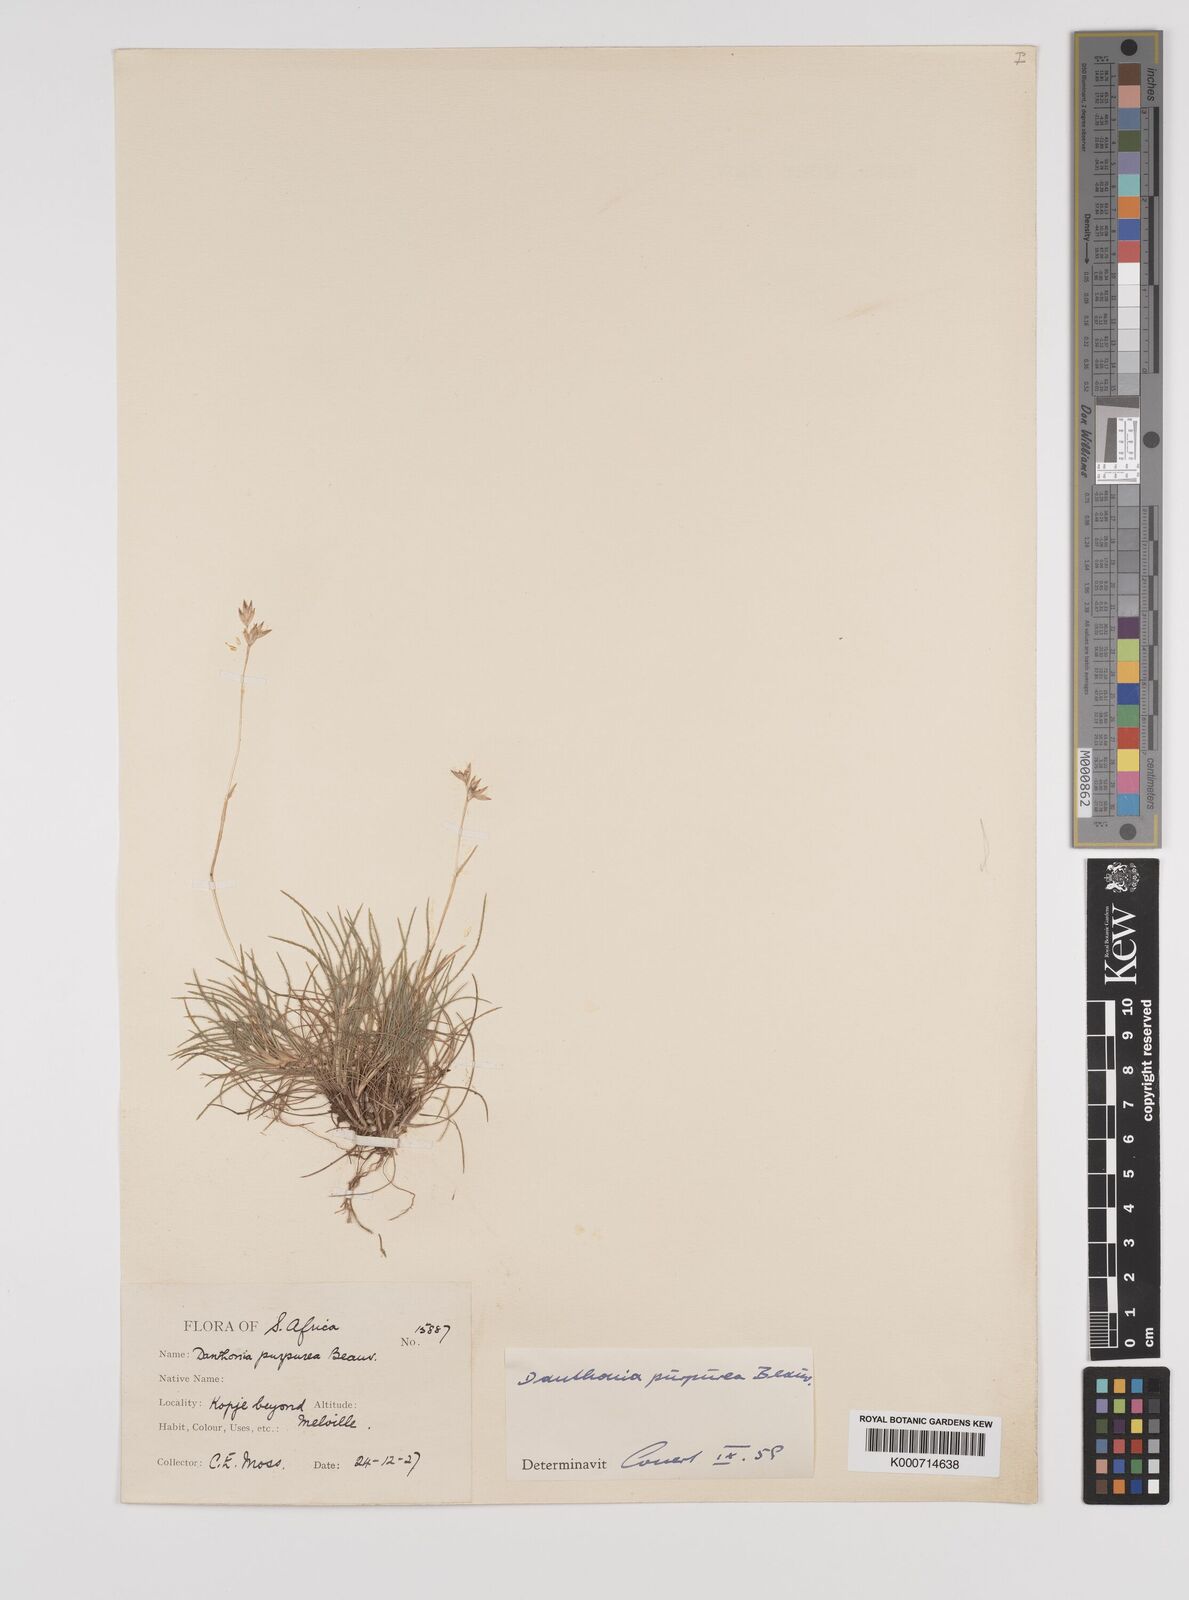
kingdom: Plantae
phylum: Tracheophyta
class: Liliopsida
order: Poales
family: Poaceae
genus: Rytidosperma
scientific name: Rytidosperma
